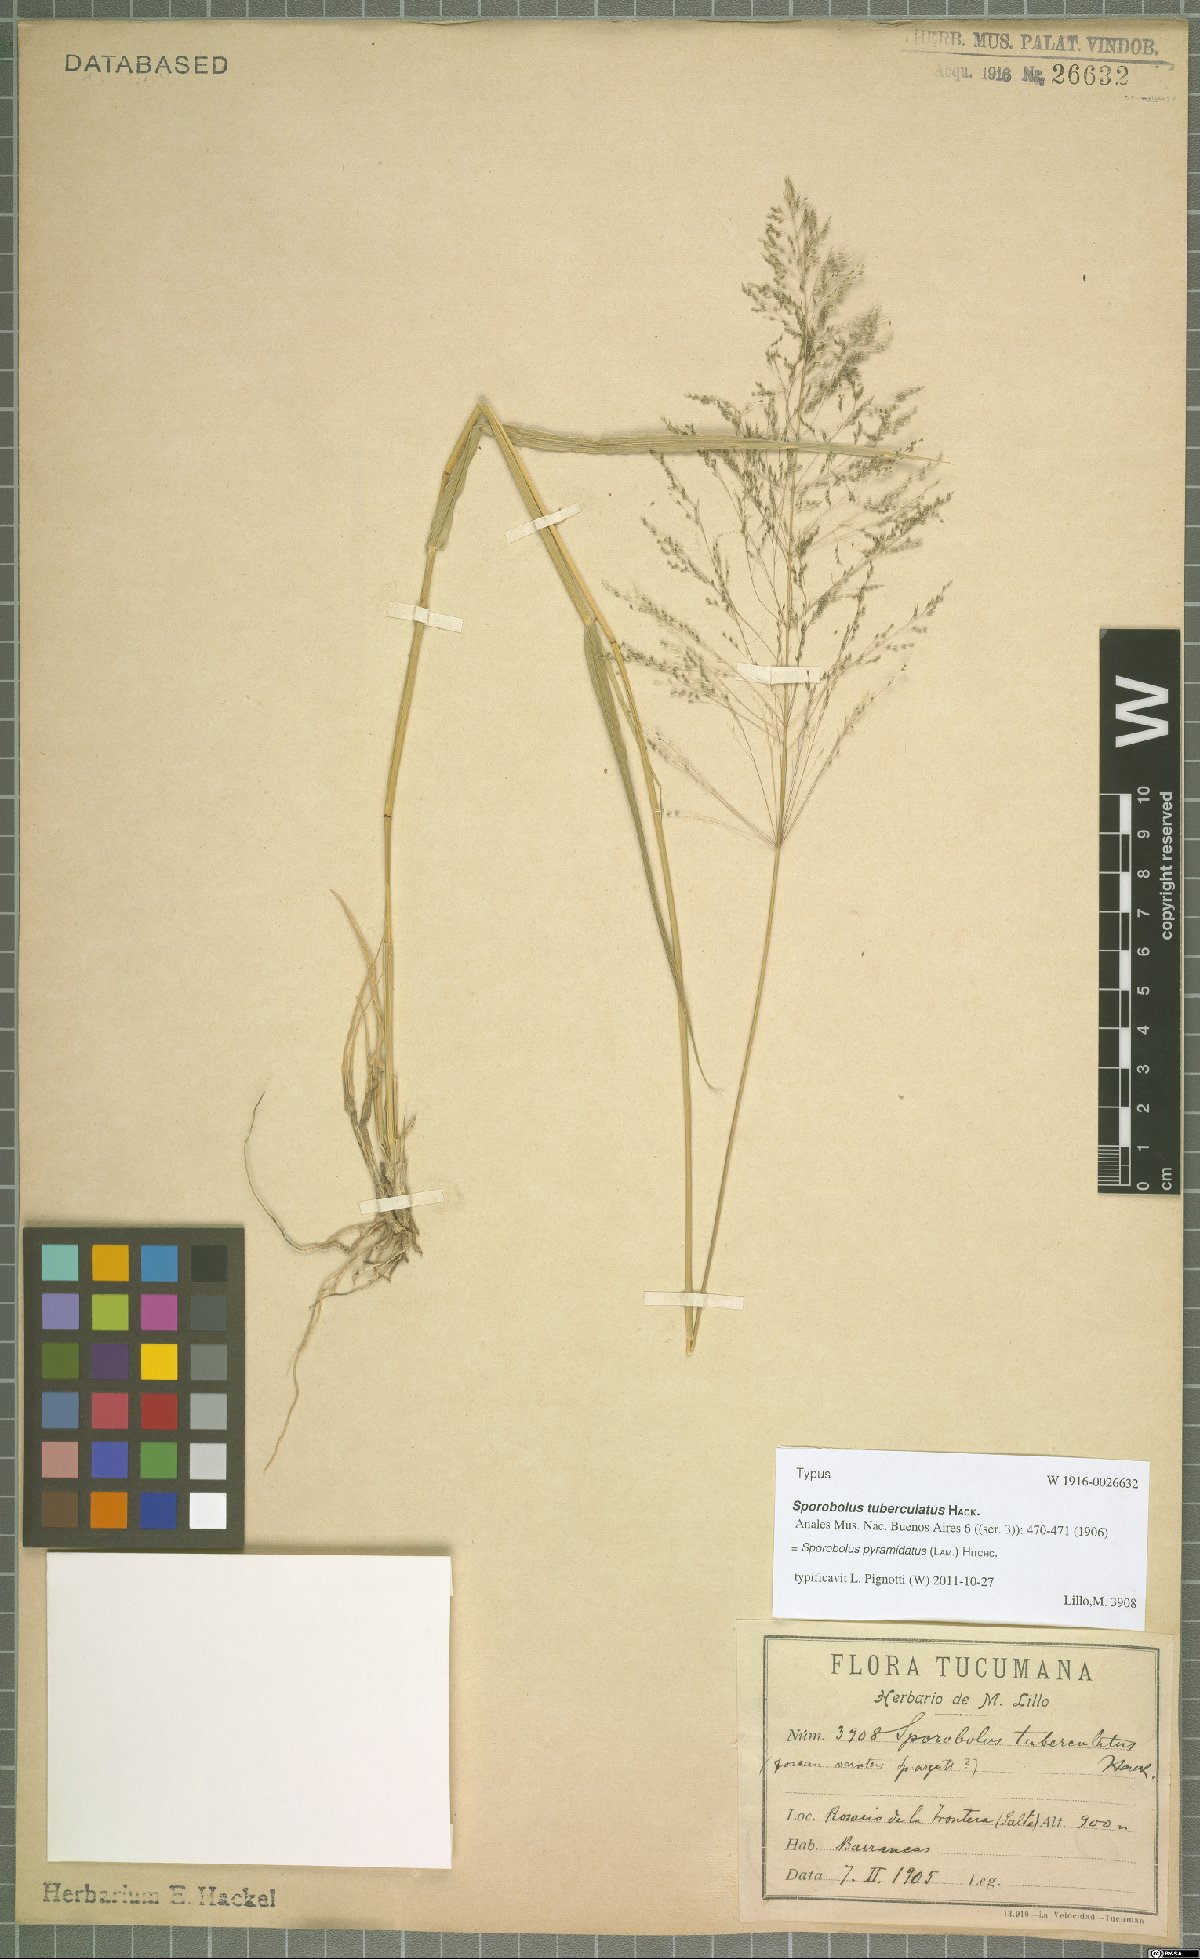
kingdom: Plantae
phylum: Tracheophyta
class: Liliopsida
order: Poales
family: Poaceae
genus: Sporobolus
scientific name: Sporobolus pyramidatus
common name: Whorled dropseed
